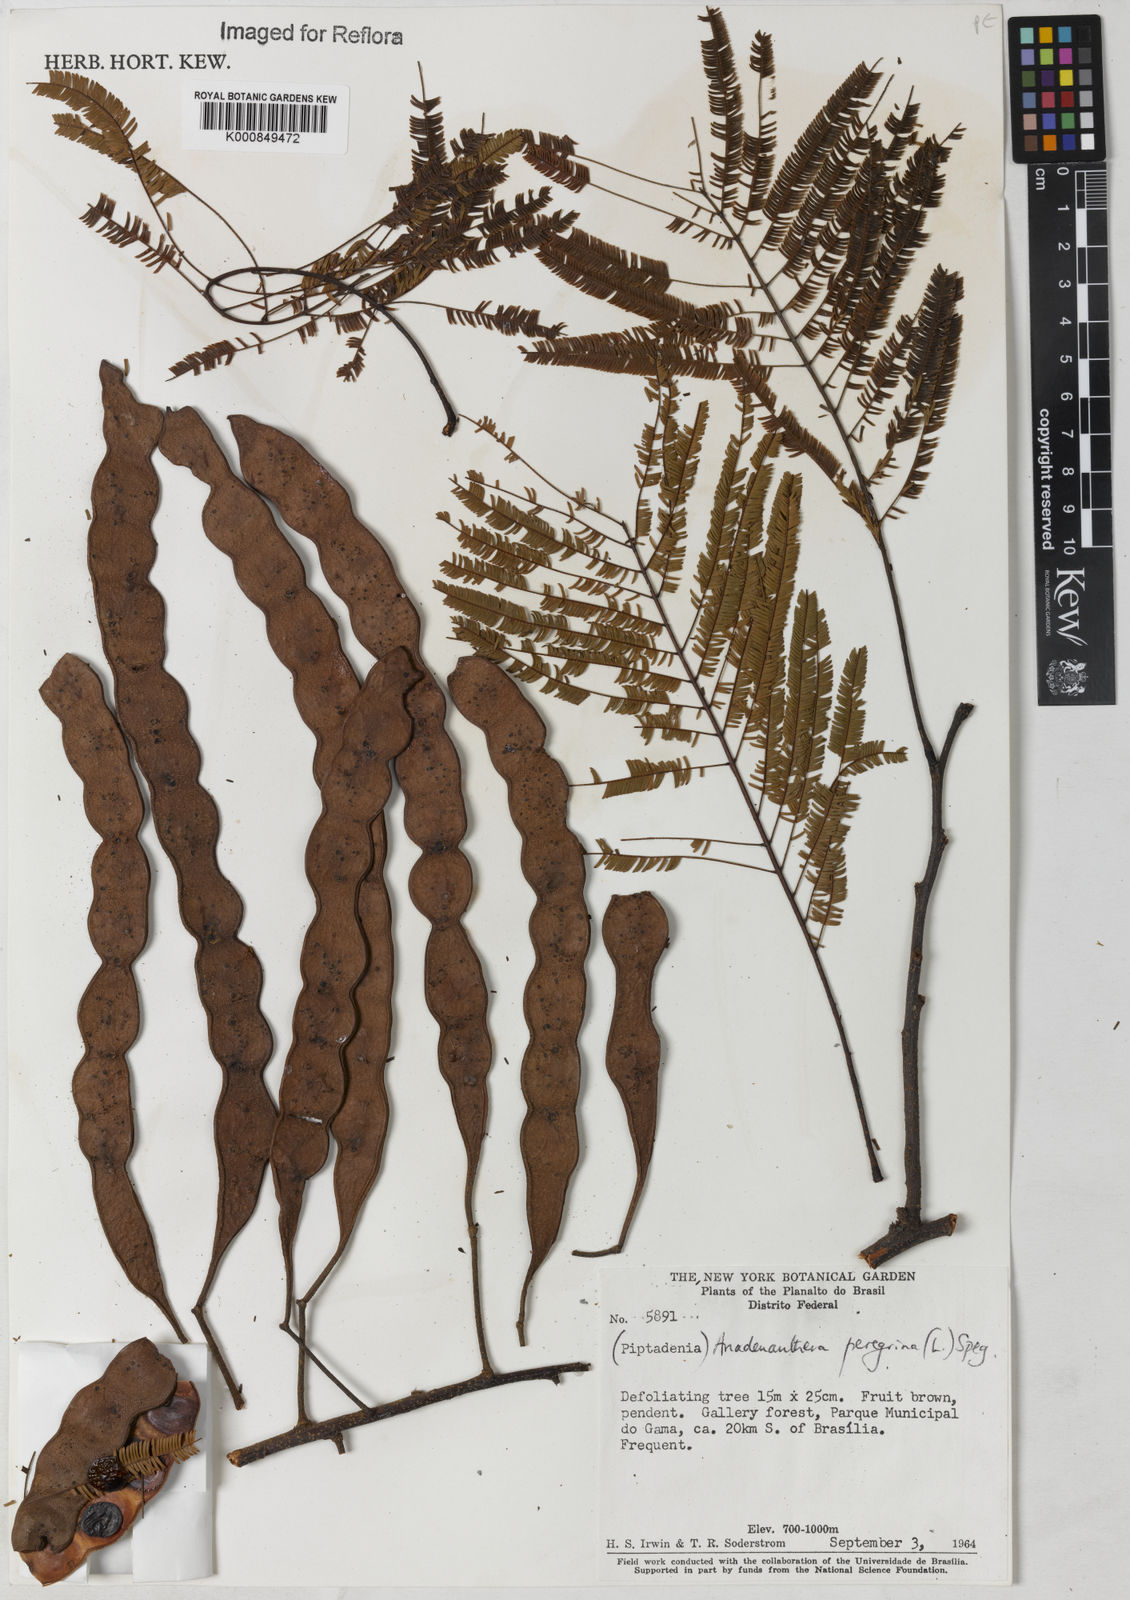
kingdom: Plantae
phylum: Tracheophyta
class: Magnoliopsida
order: Fabales
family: Fabaceae
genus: Anadenanthera
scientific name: Anadenanthera peregrina
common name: Cohoba
